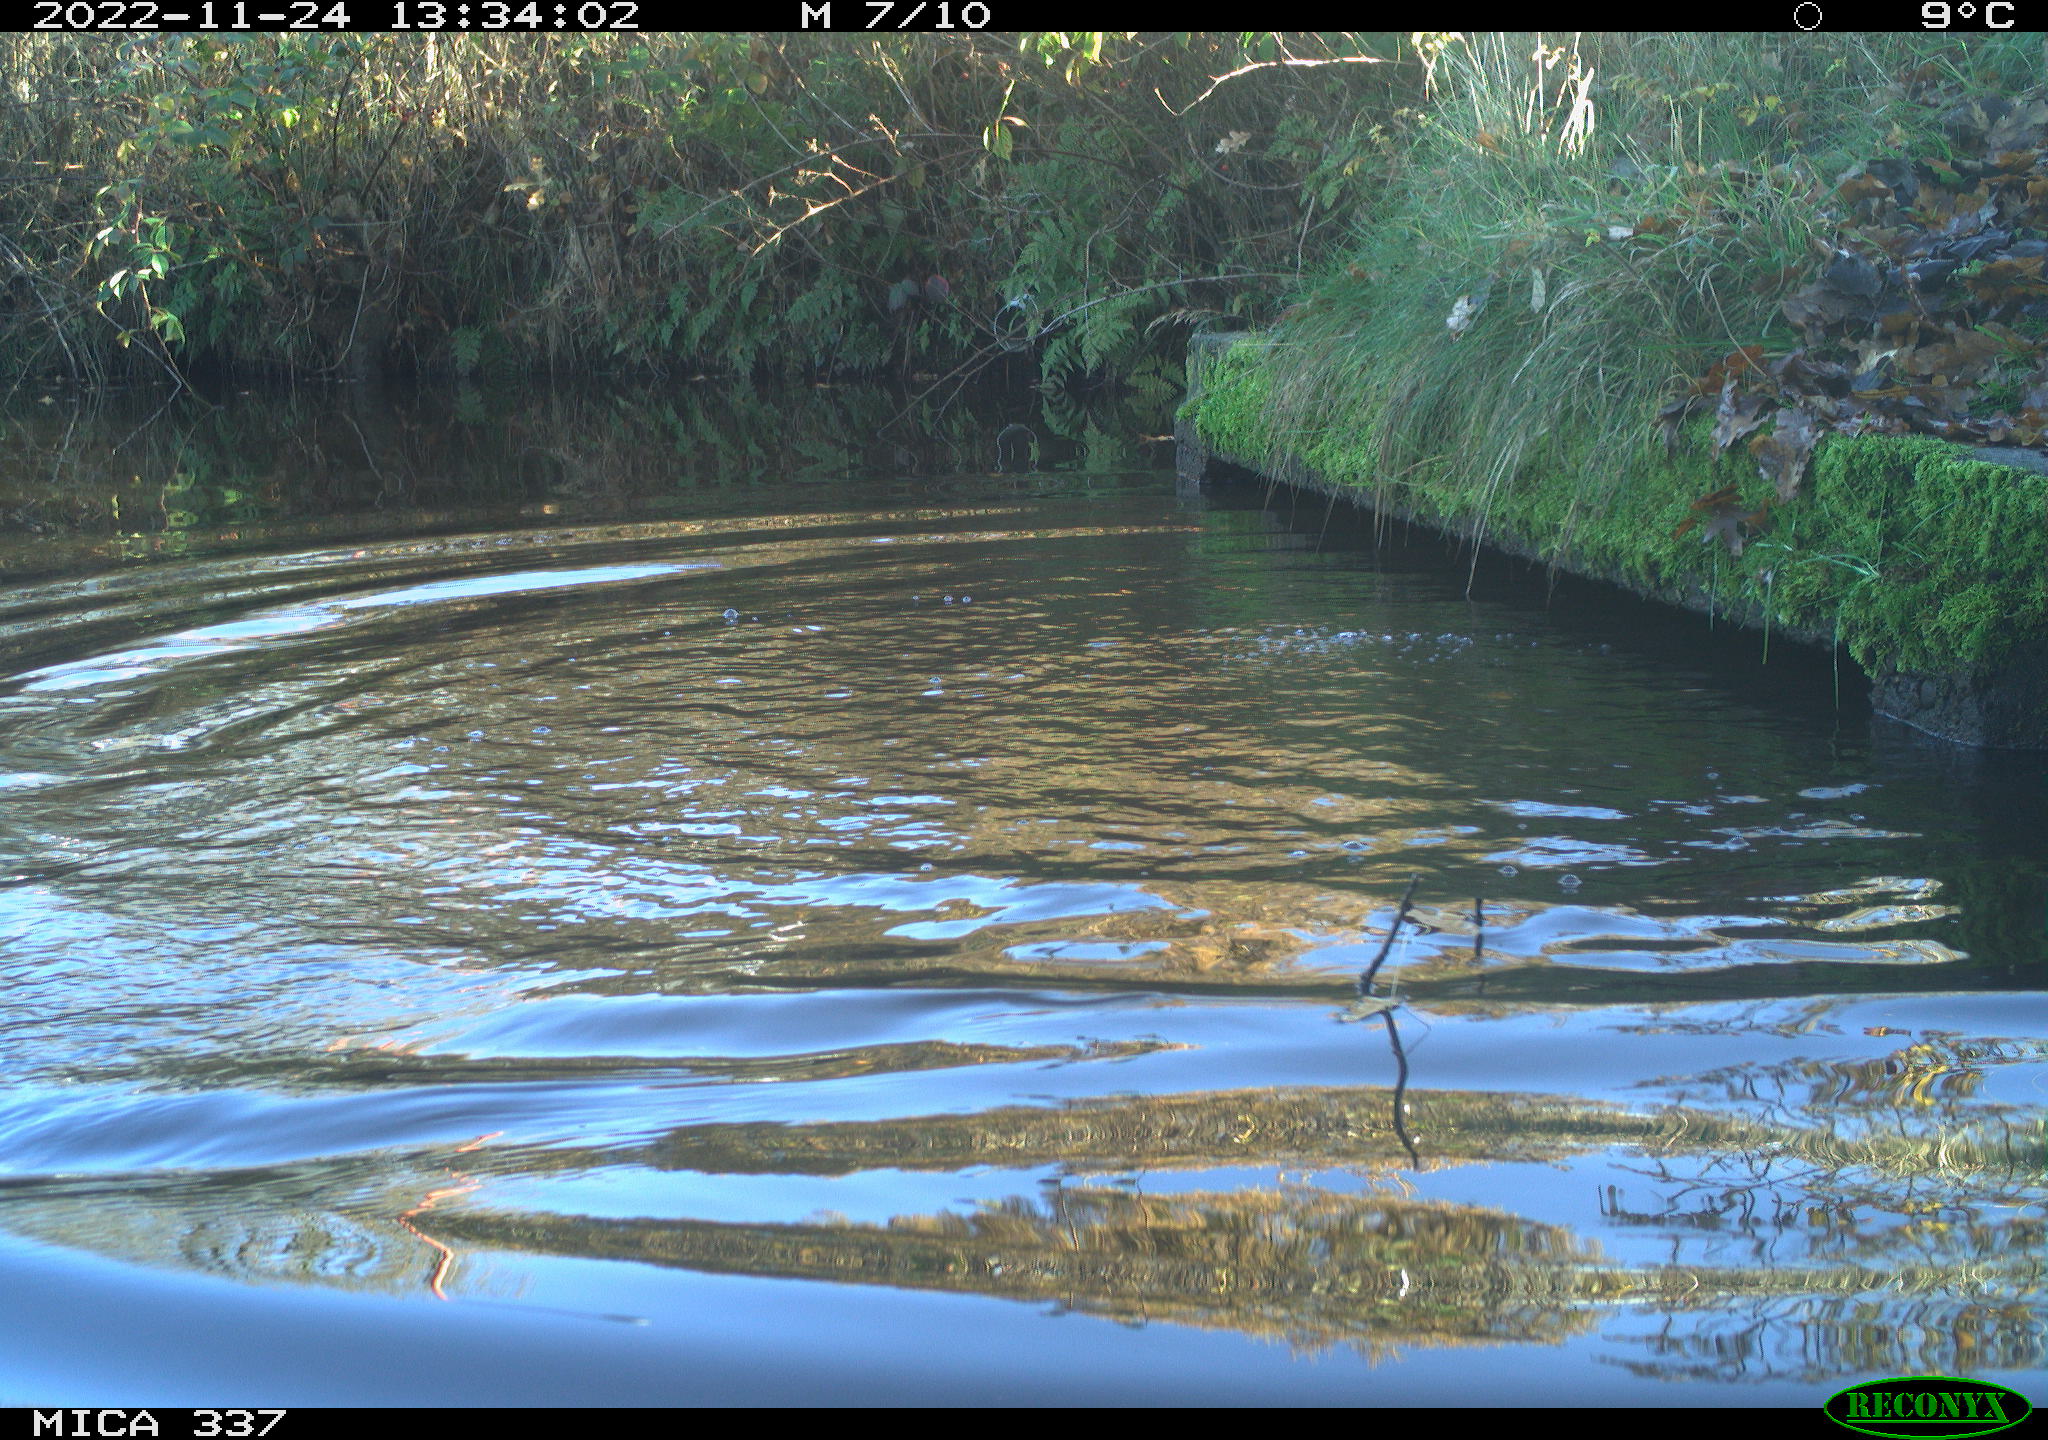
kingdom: Animalia
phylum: Chordata
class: Aves
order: Anseriformes
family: Anatidae
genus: Anas
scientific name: Anas
